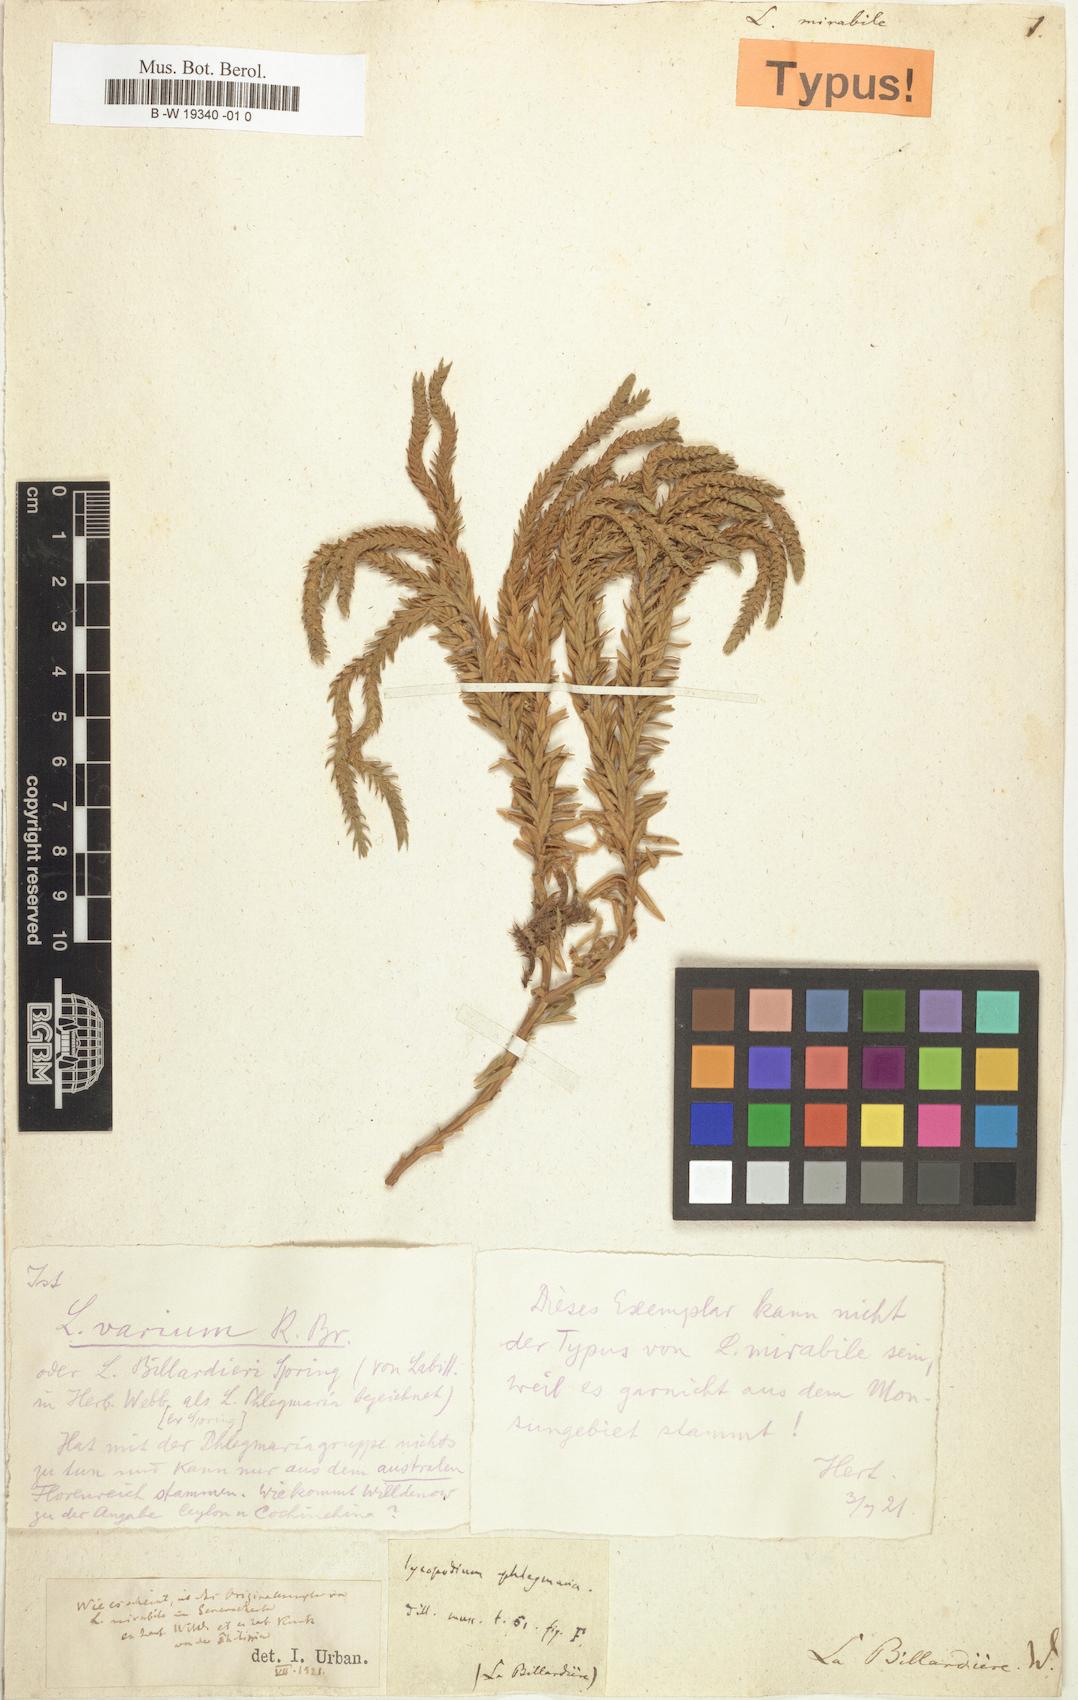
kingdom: Plantae
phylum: Tracheophyta
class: Lycopodiopsida
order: Lycopodiales
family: Lycopodiaceae
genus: Phlegmariurus
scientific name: Phlegmariurus mirabilis
